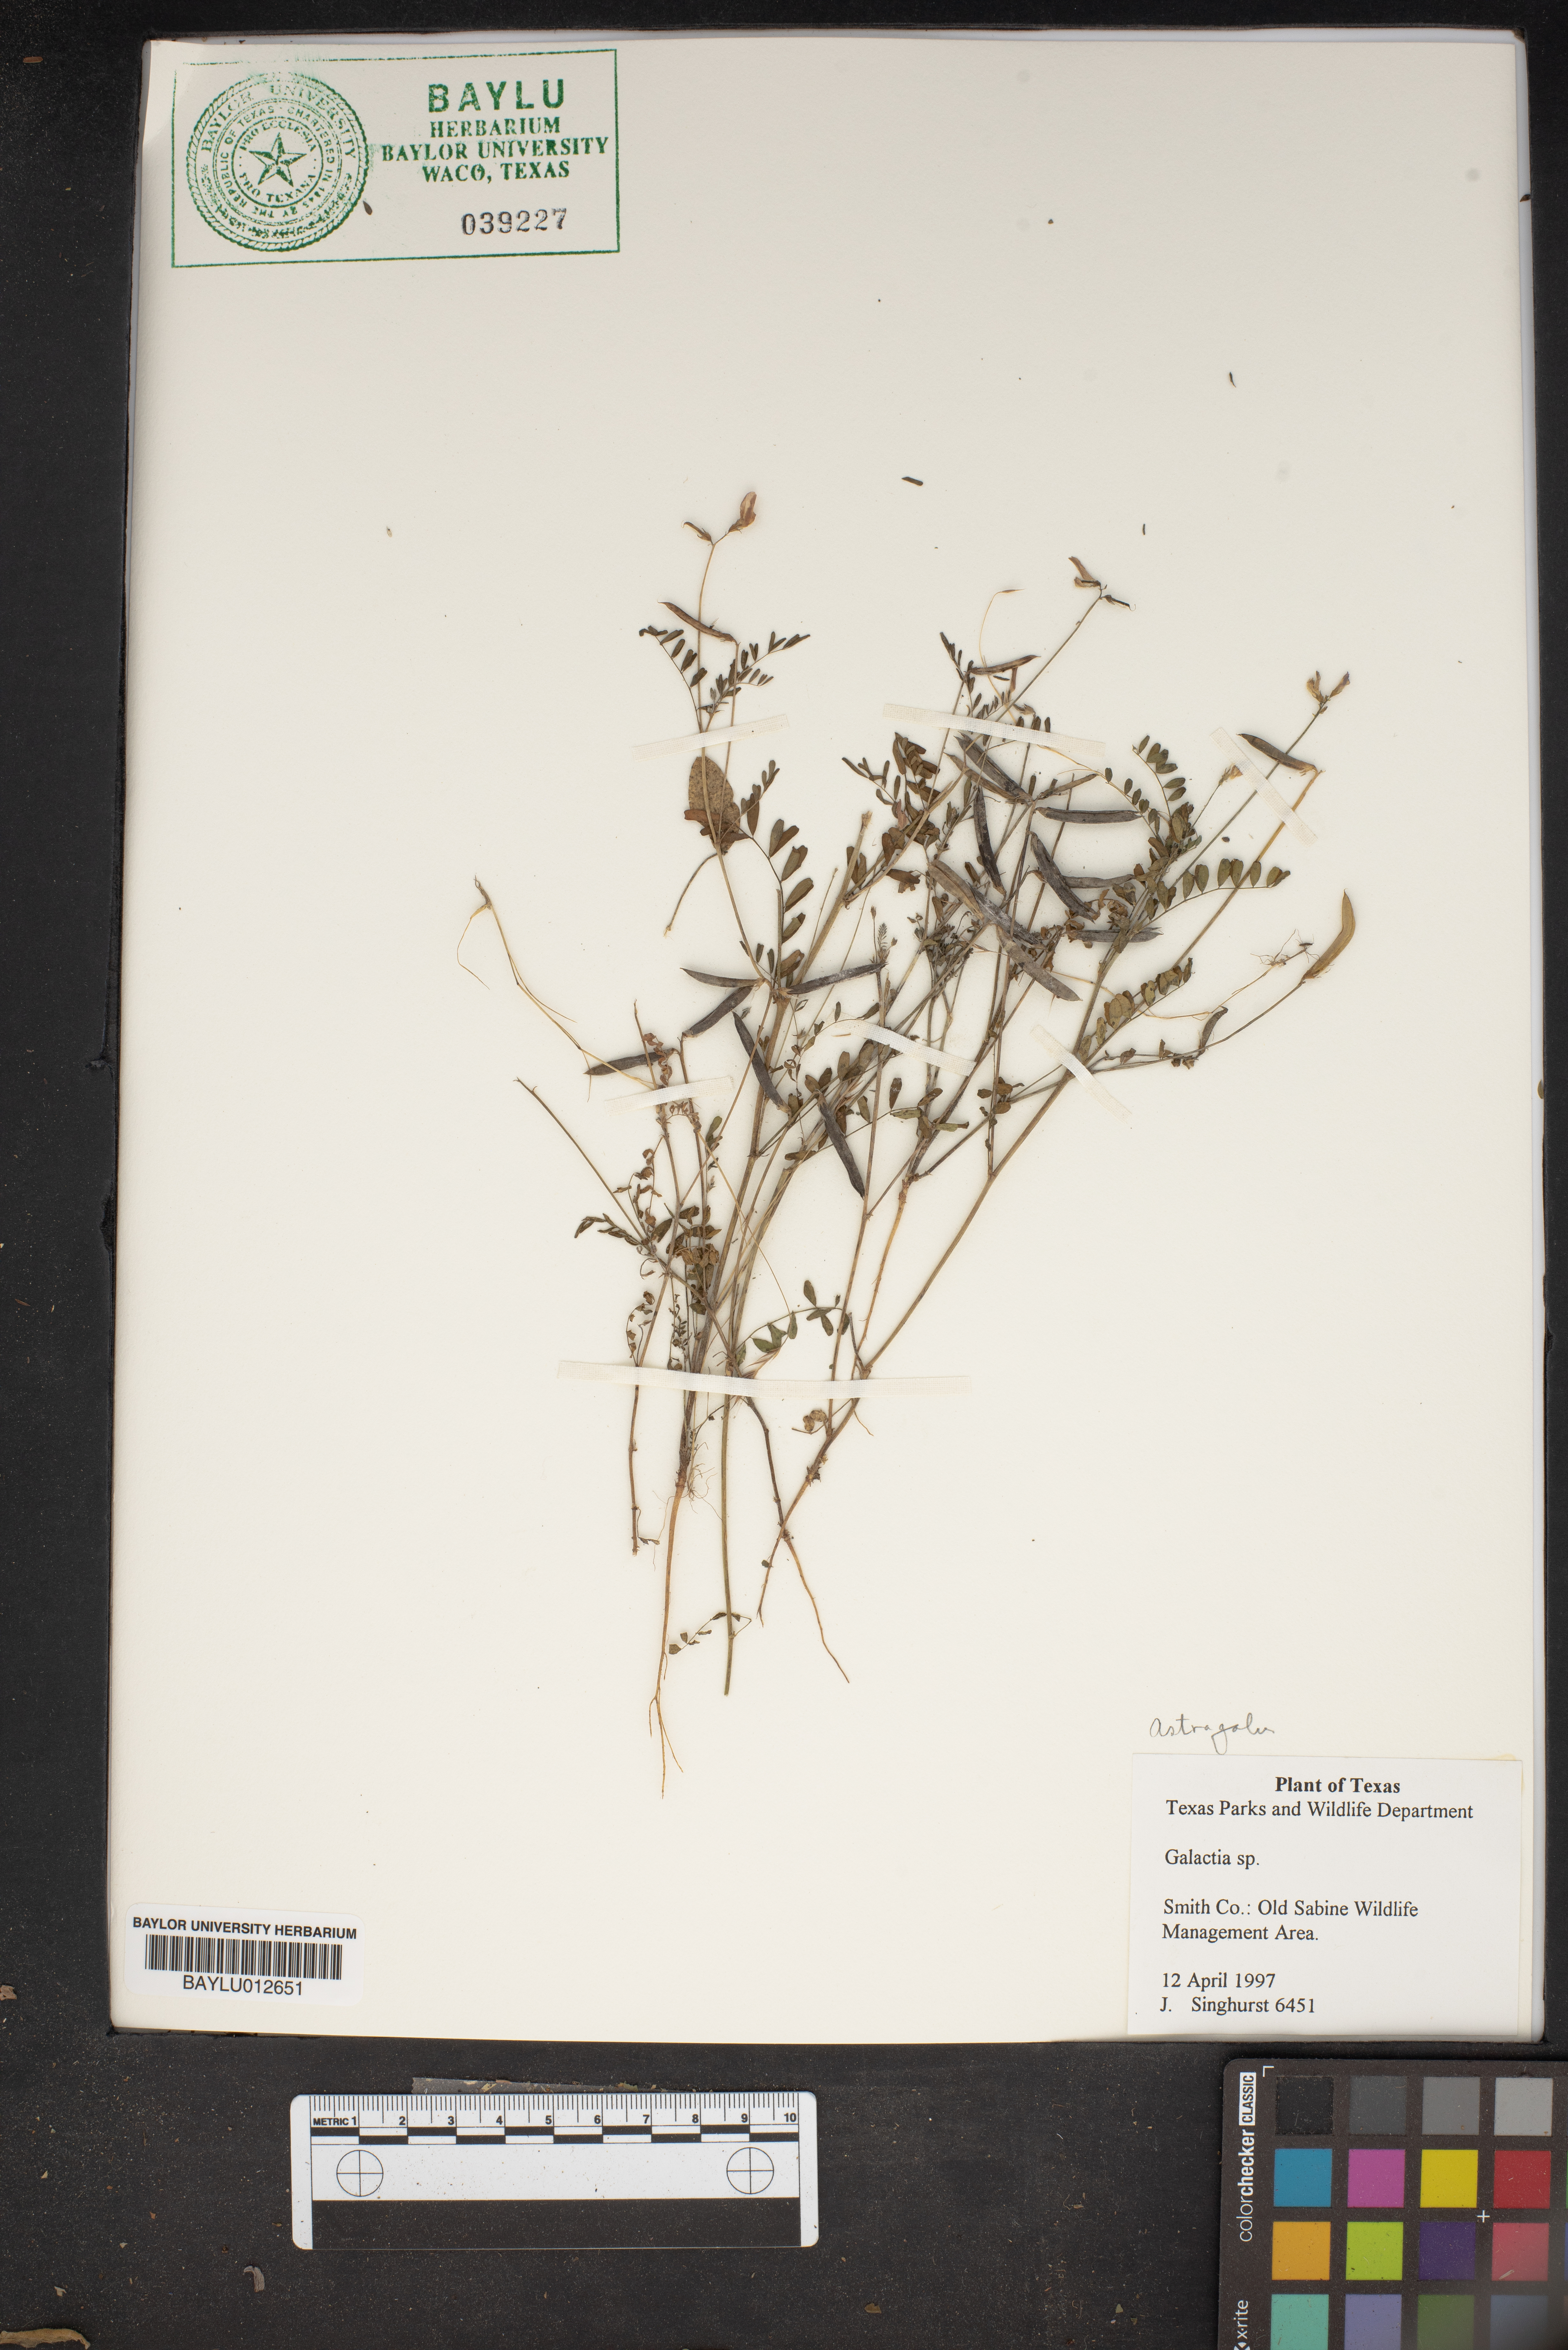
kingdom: Plantae
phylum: Tracheophyta
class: Magnoliopsida
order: Fabales
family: Fabaceae
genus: Galactia
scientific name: Galactia
